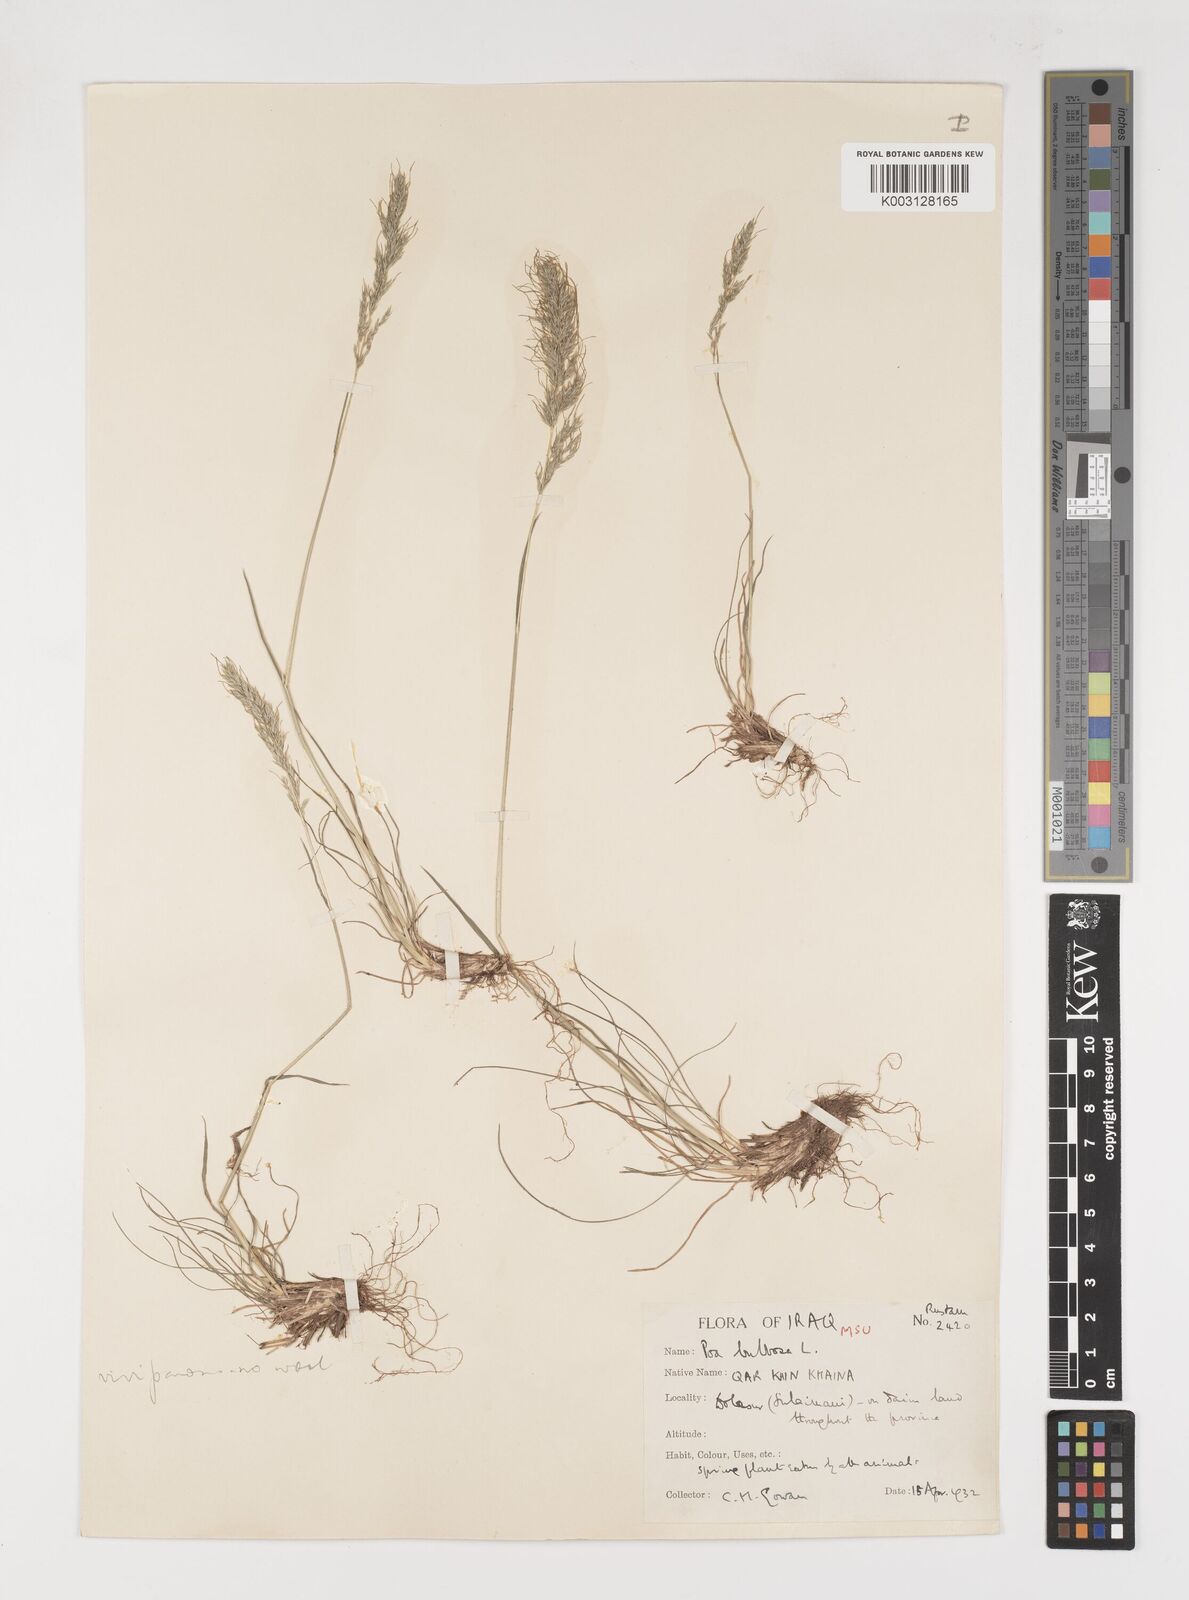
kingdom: Plantae
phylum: Tracheophyta
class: Liliopsida
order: Poales
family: Poaceae
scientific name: Poaceae
